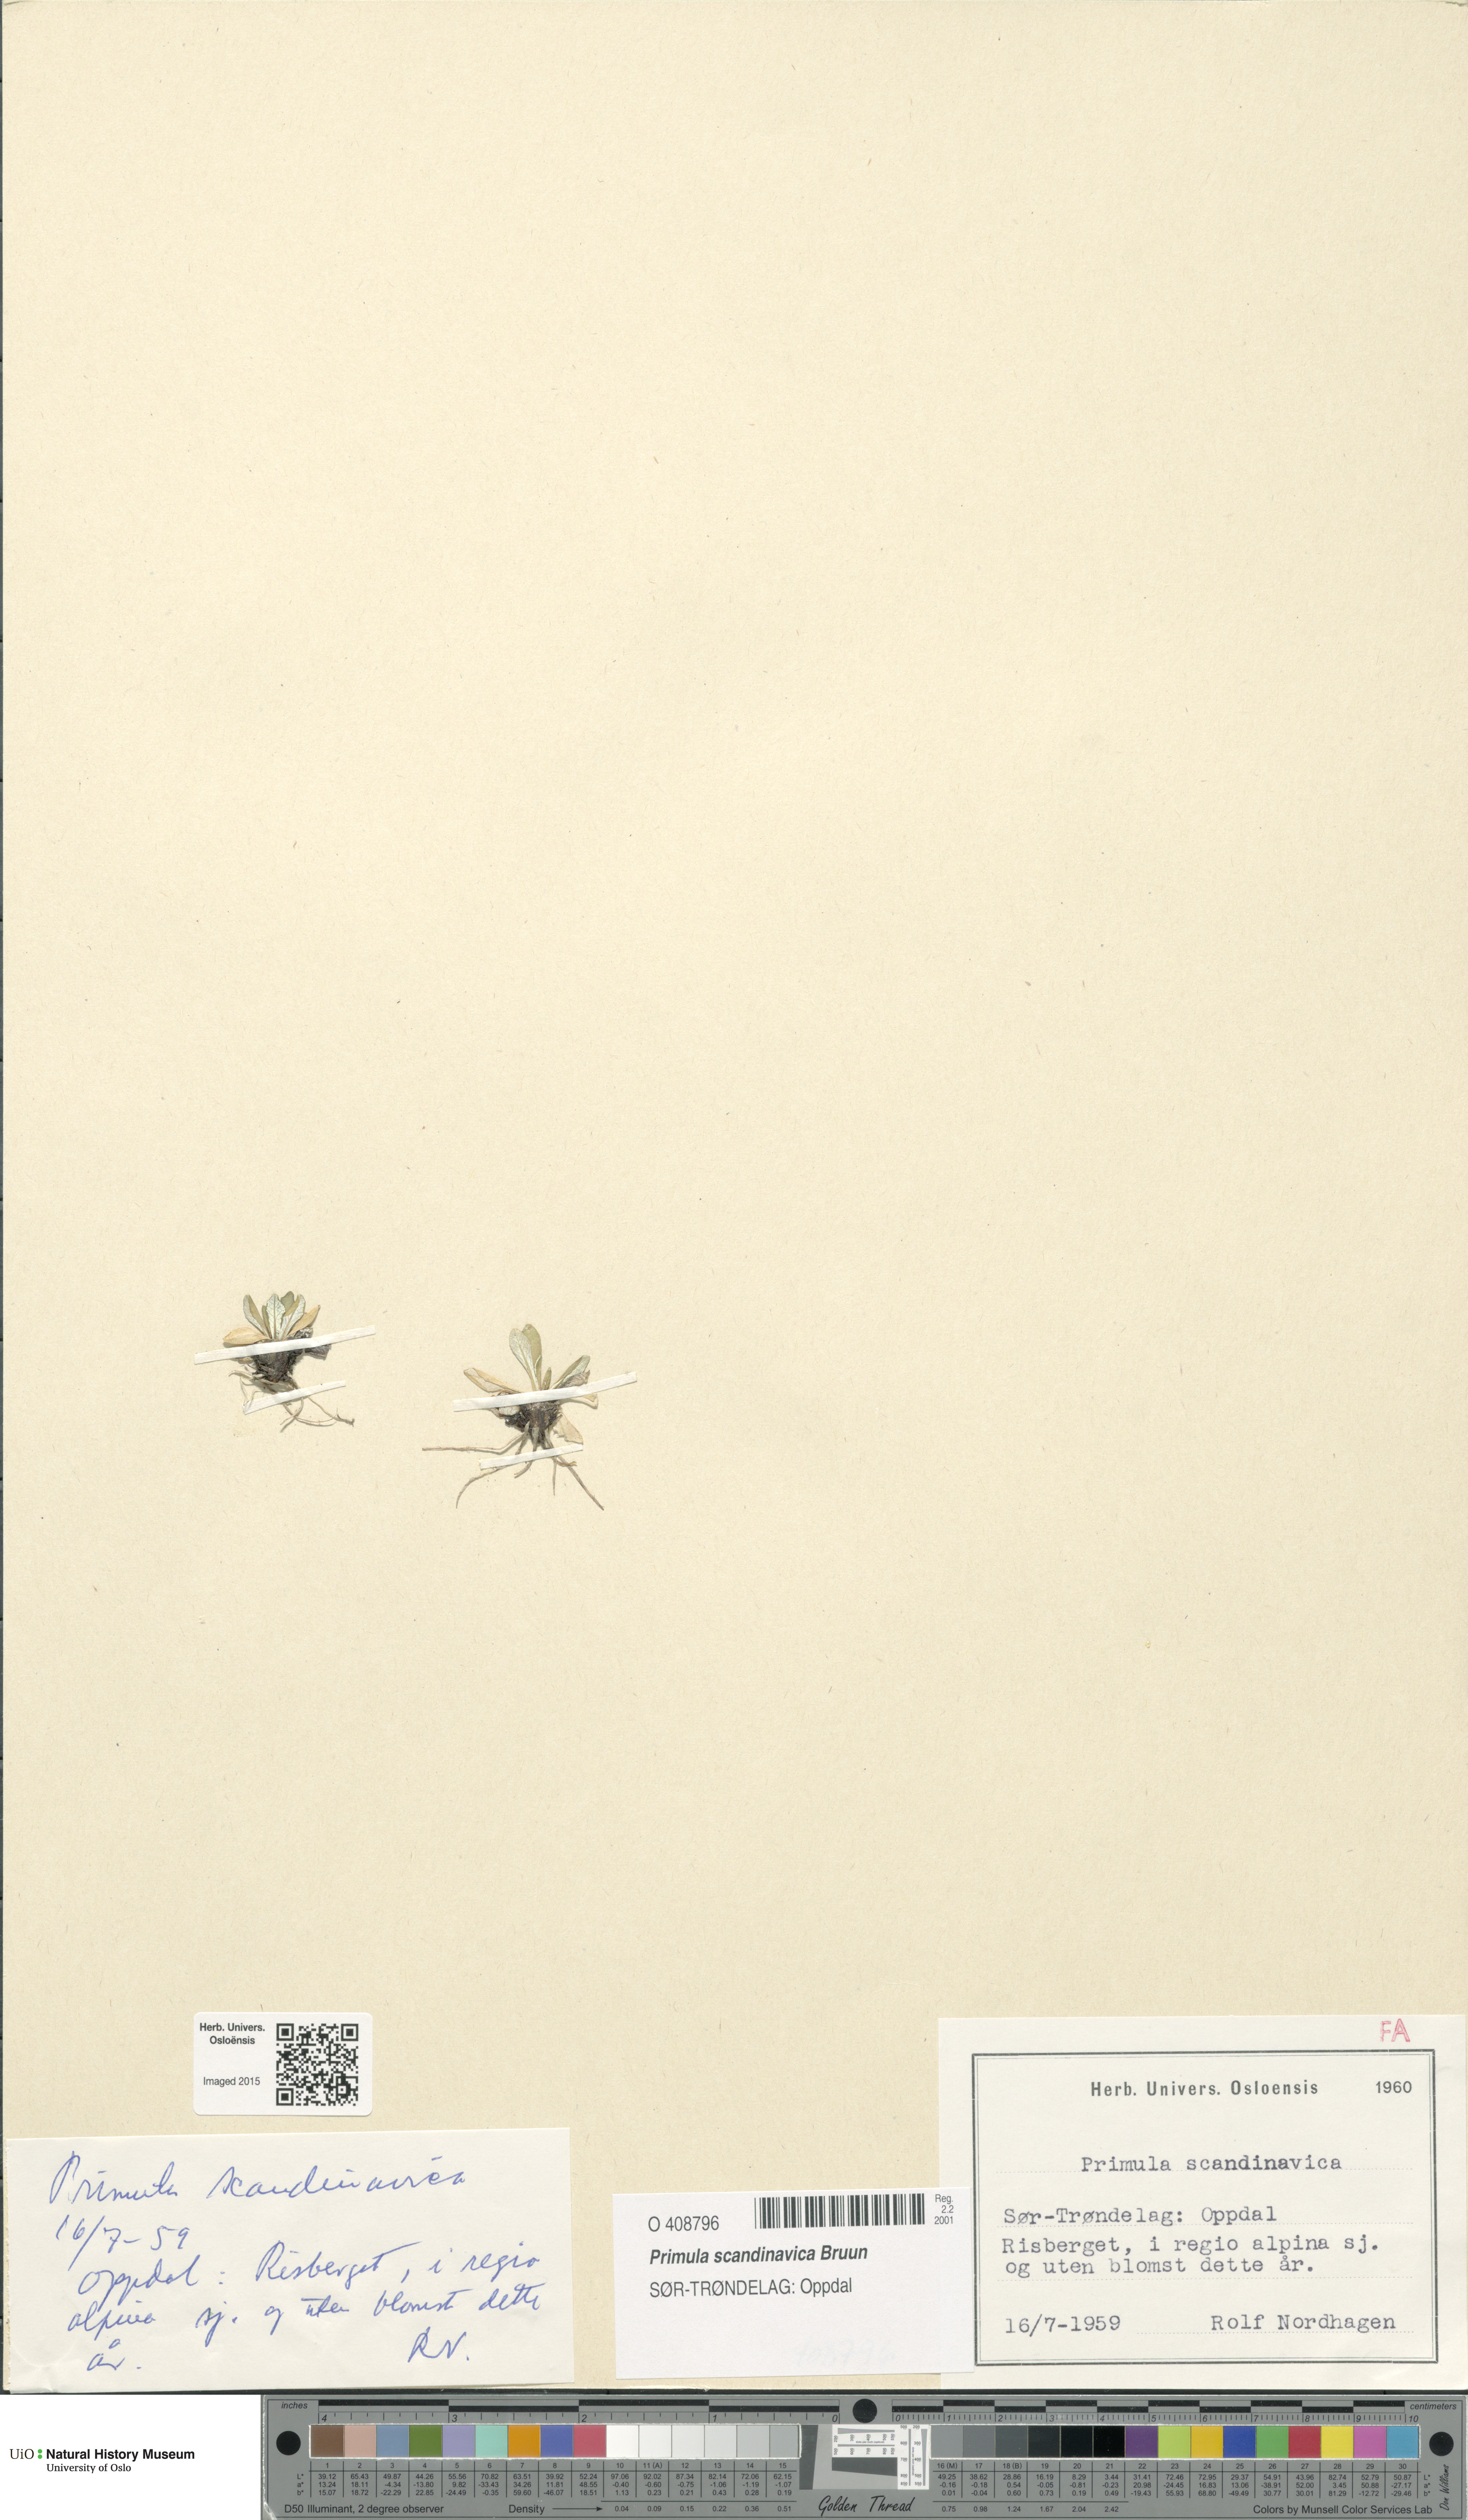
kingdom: Plantae
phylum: Tracheophyta
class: Magnoliopsida
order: Ericales
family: Primulaceae
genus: Primula
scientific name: Primula scandinavica
